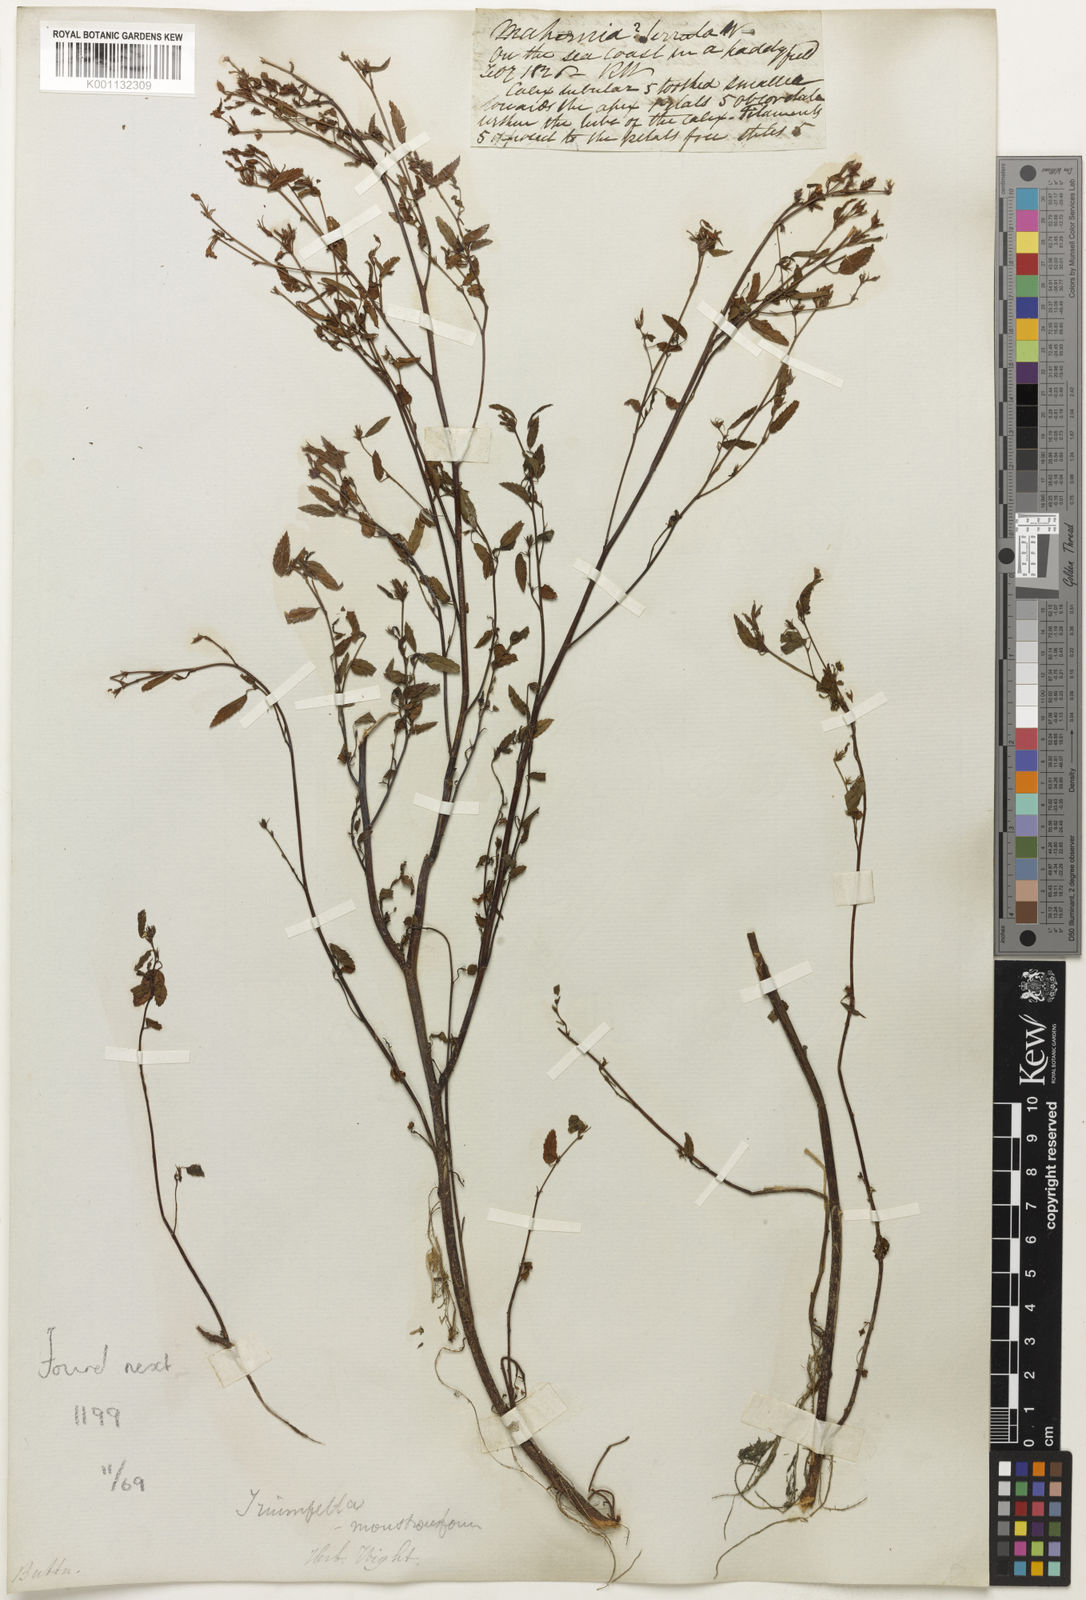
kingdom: Plantae
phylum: Tracheophyta
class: Magnoliopsida
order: Malvales
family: Malvaceae
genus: Melochia
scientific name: Melochia
